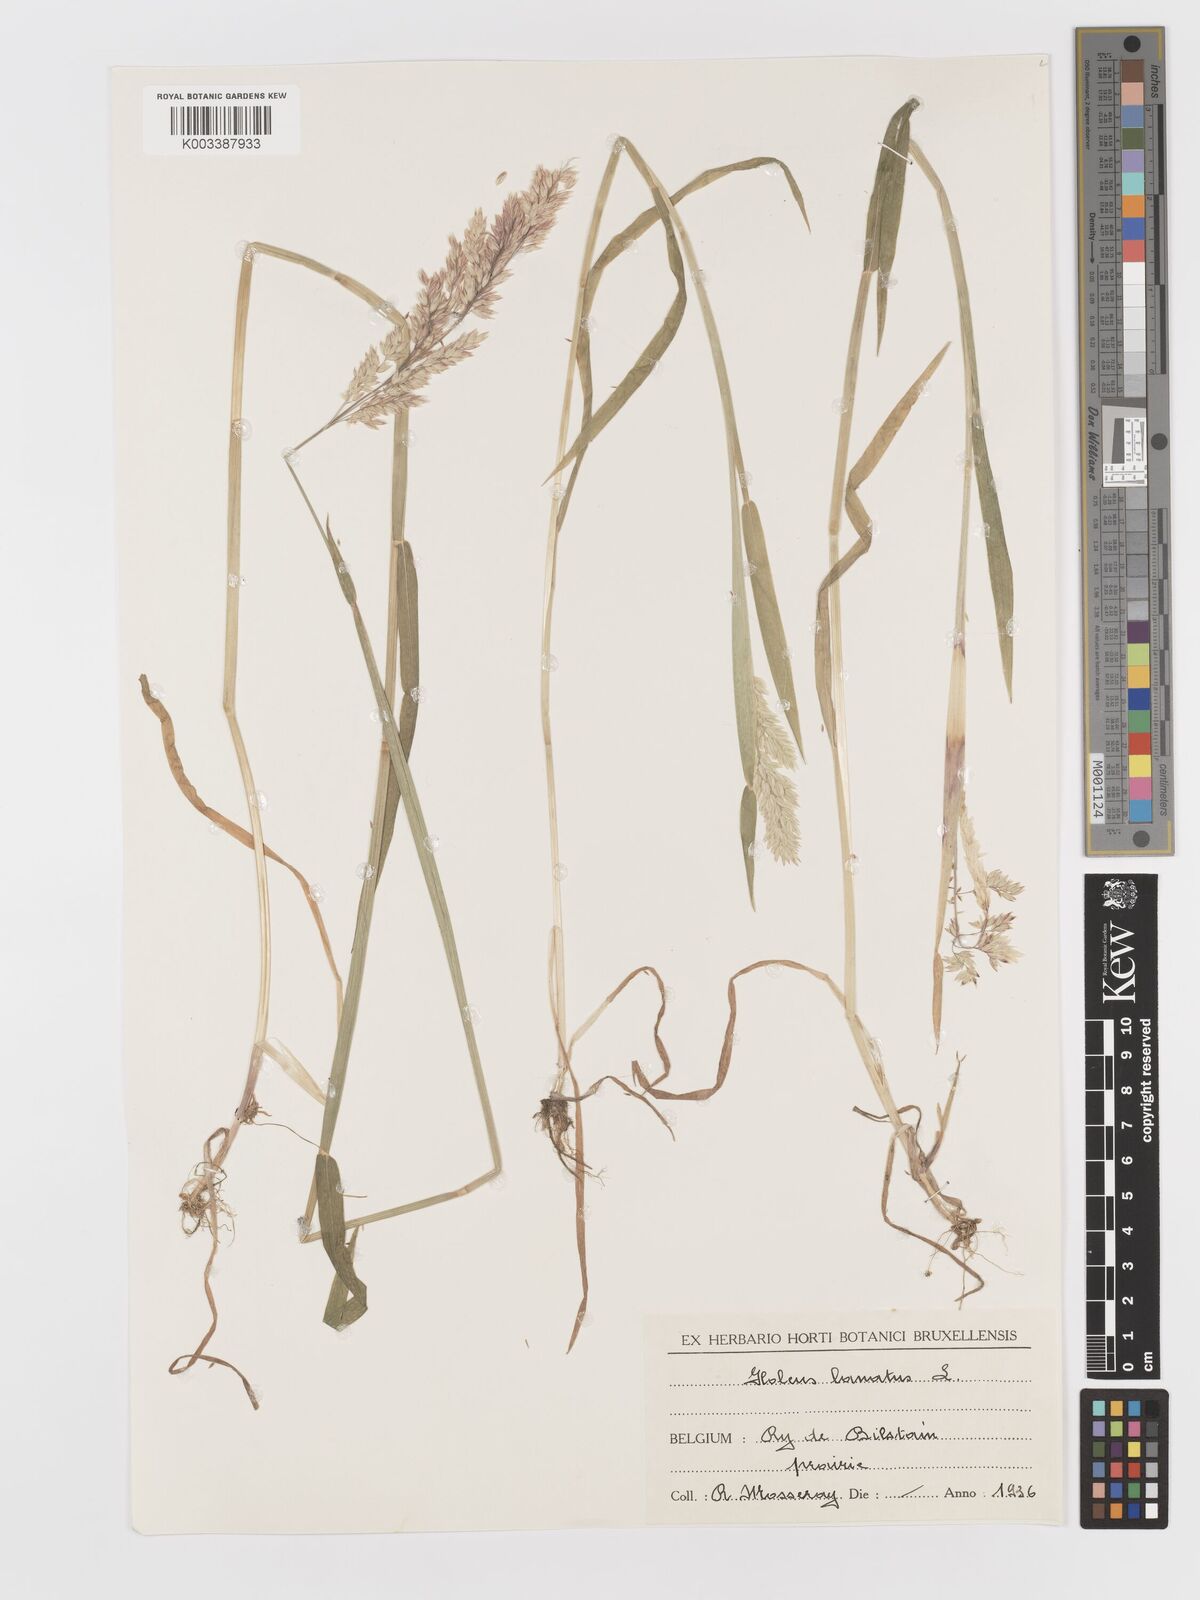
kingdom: Plantae
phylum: Tracheophyta
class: Liliopsida
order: Poales
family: Poaceae
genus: Holcus
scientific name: Holcus lanatus
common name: Yorkshire-fog
